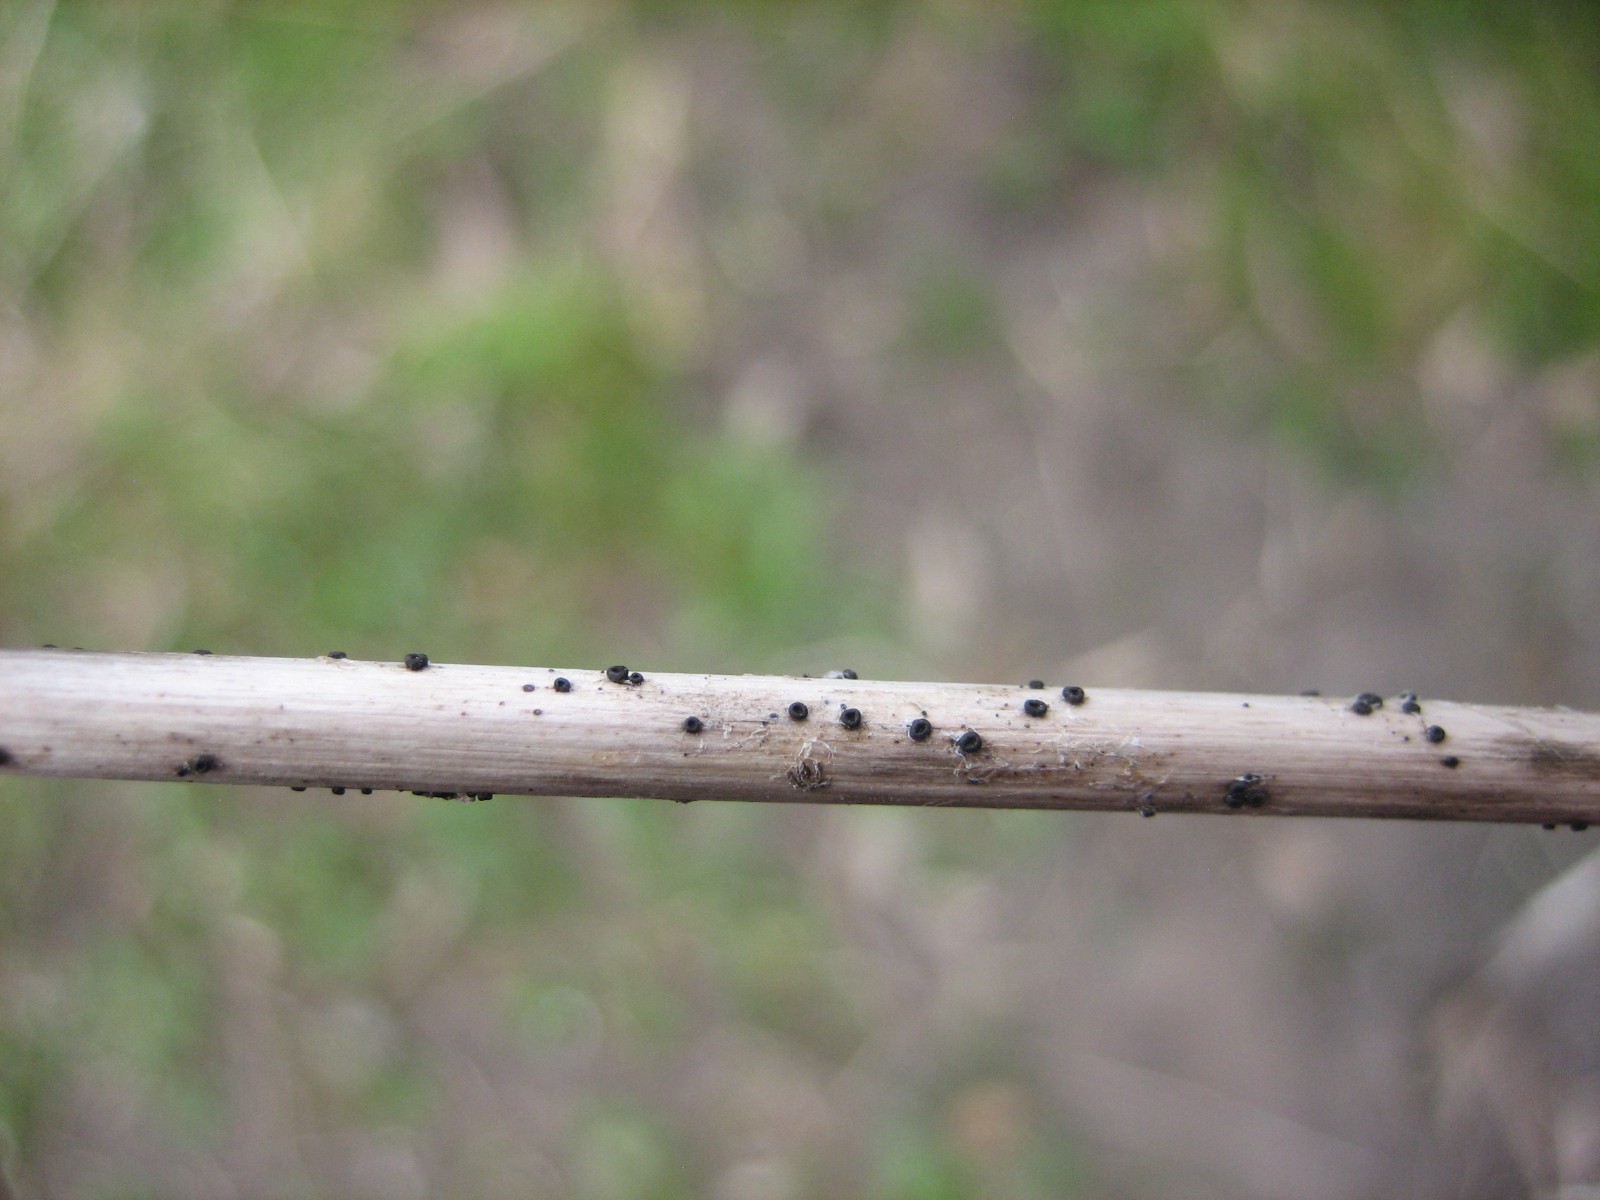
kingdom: Fungi
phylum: Ascomycota
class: Leotiomycetes
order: Helotiales
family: Heterosphaeriaceae
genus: Heterosphaeria
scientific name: Heterosphaeria
